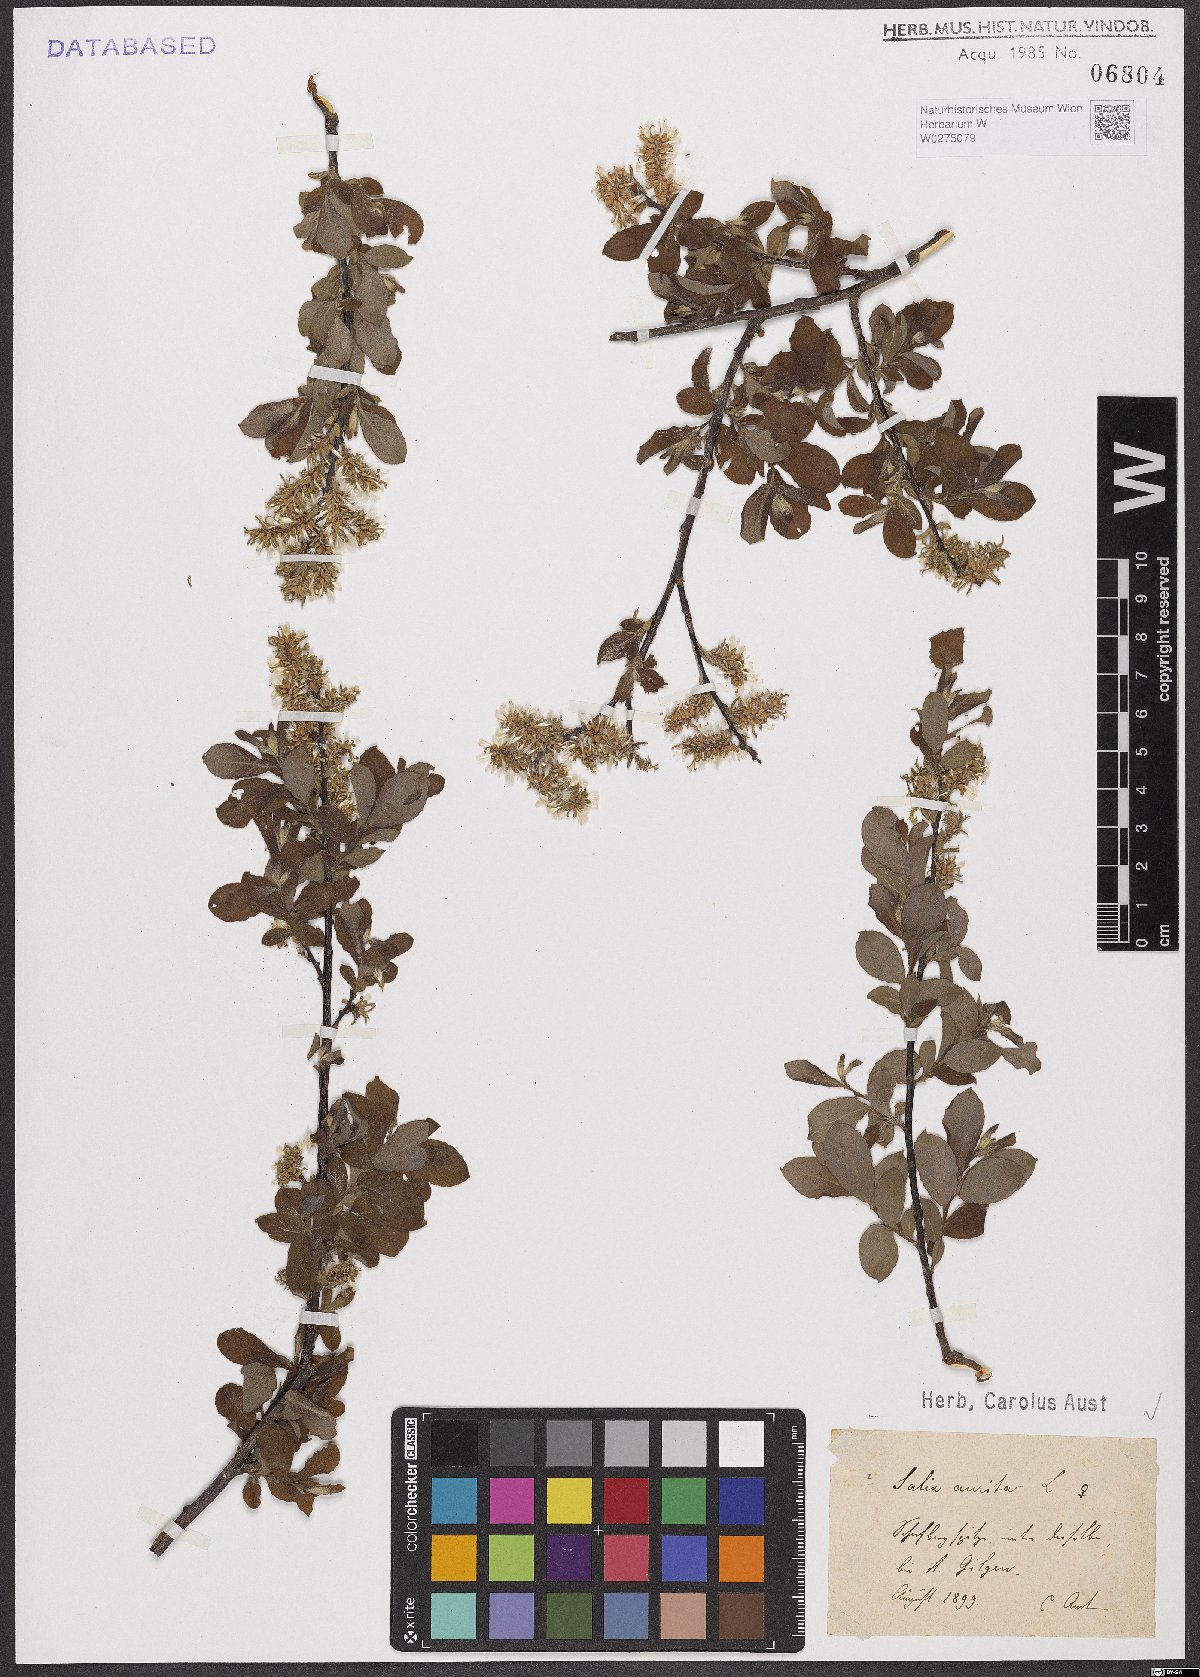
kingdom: Plantae
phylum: Tracheophyta
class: Magnoliopsida
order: Malpighiales
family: Salicaceae
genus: Salix
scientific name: Salix aurita
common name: Eared willow
